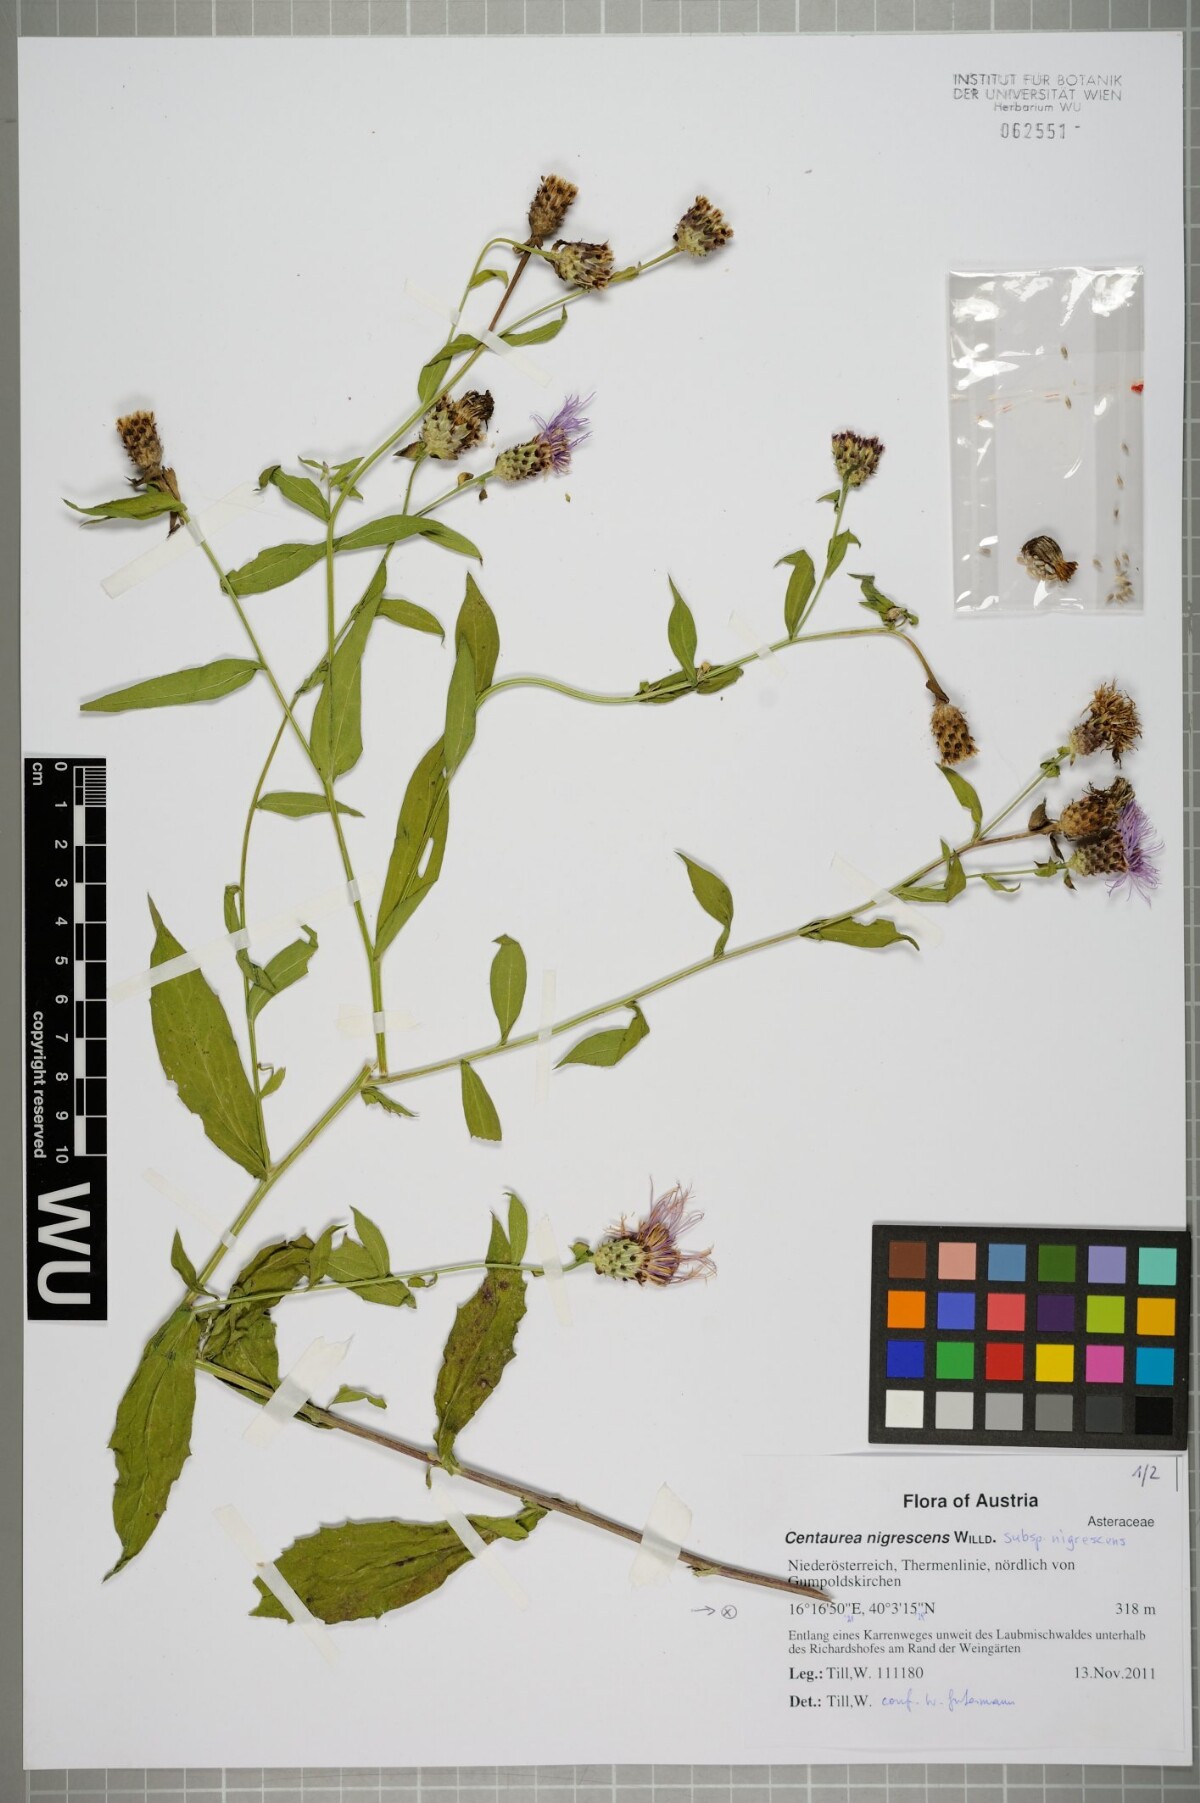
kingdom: Plantae
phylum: Tracheophyta
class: Magnoliopsida
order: Asterales
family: Asteraceae
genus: Centaurea
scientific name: Centaurea nigrescens
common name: Tyrol knapweed
